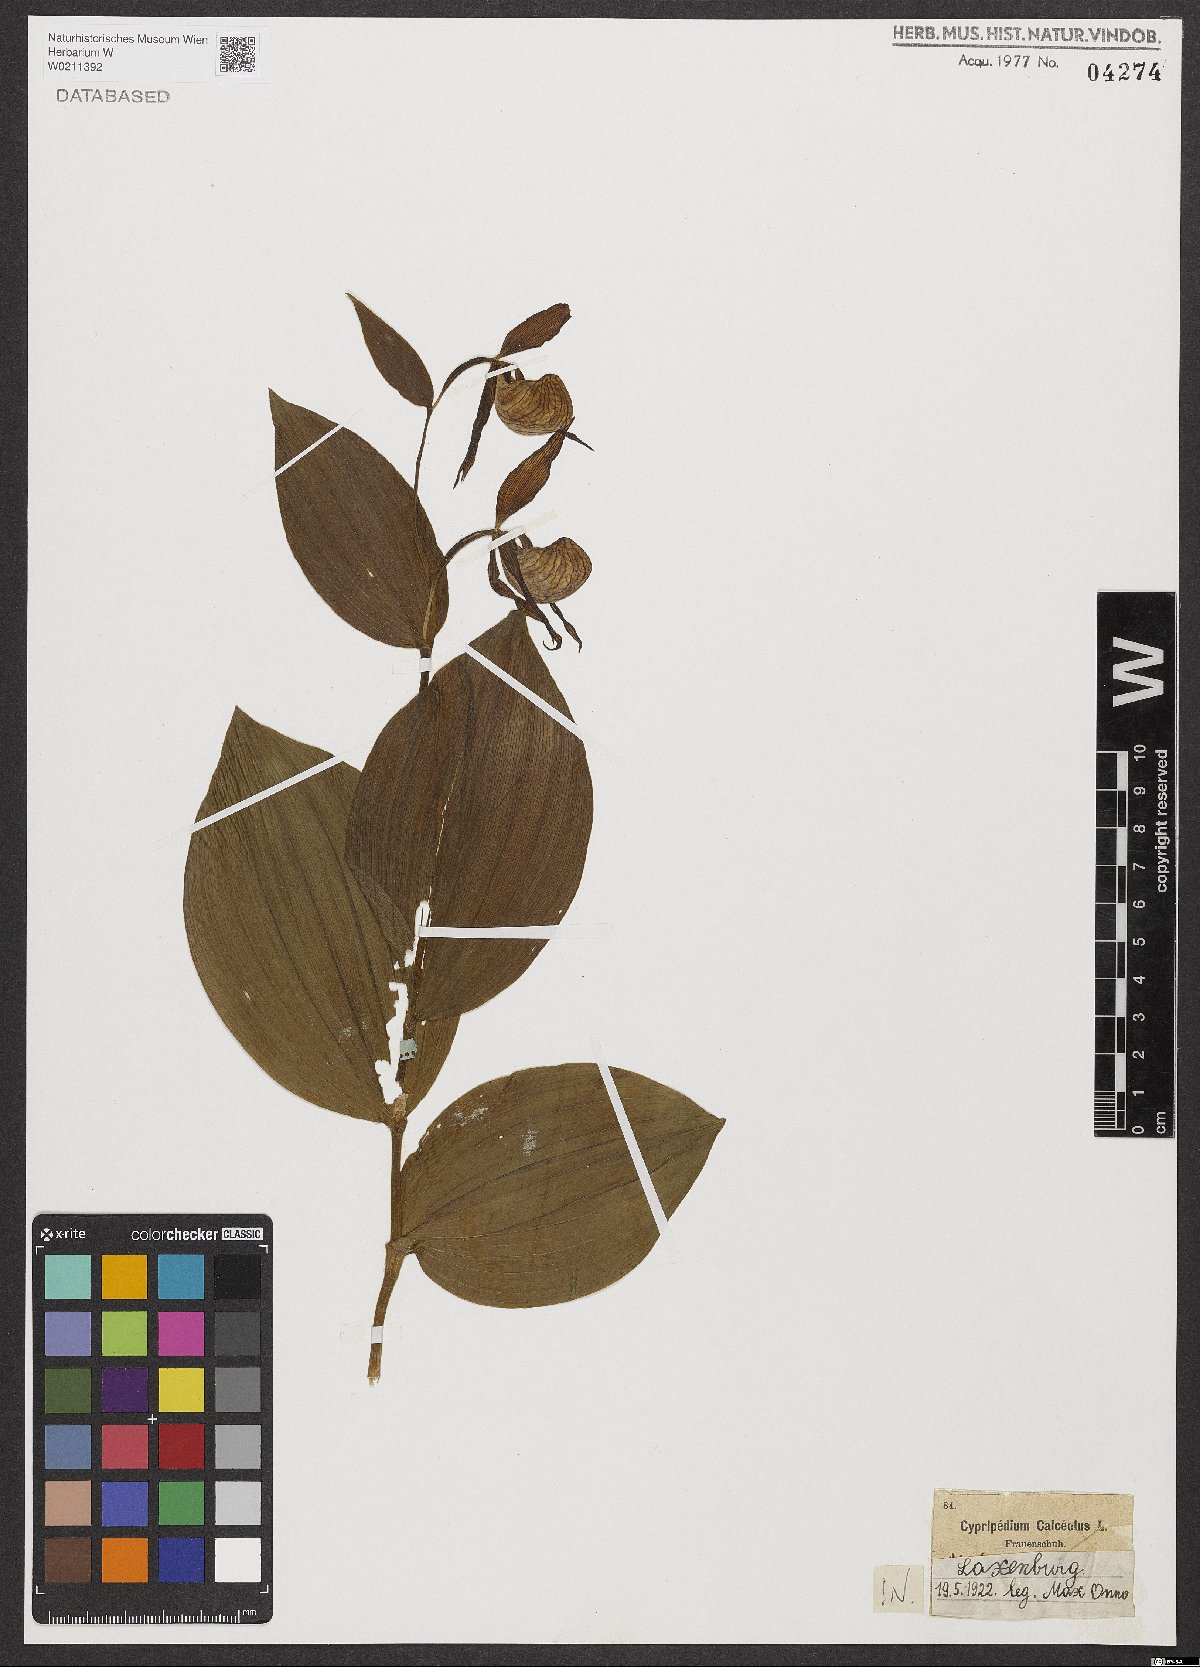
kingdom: Plantae
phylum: Tracheophyta
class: Liliopsida
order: Asparagales
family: Orchidaceae
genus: Cypripedium
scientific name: Cypripedium calceolus
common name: Lady's-slipper
